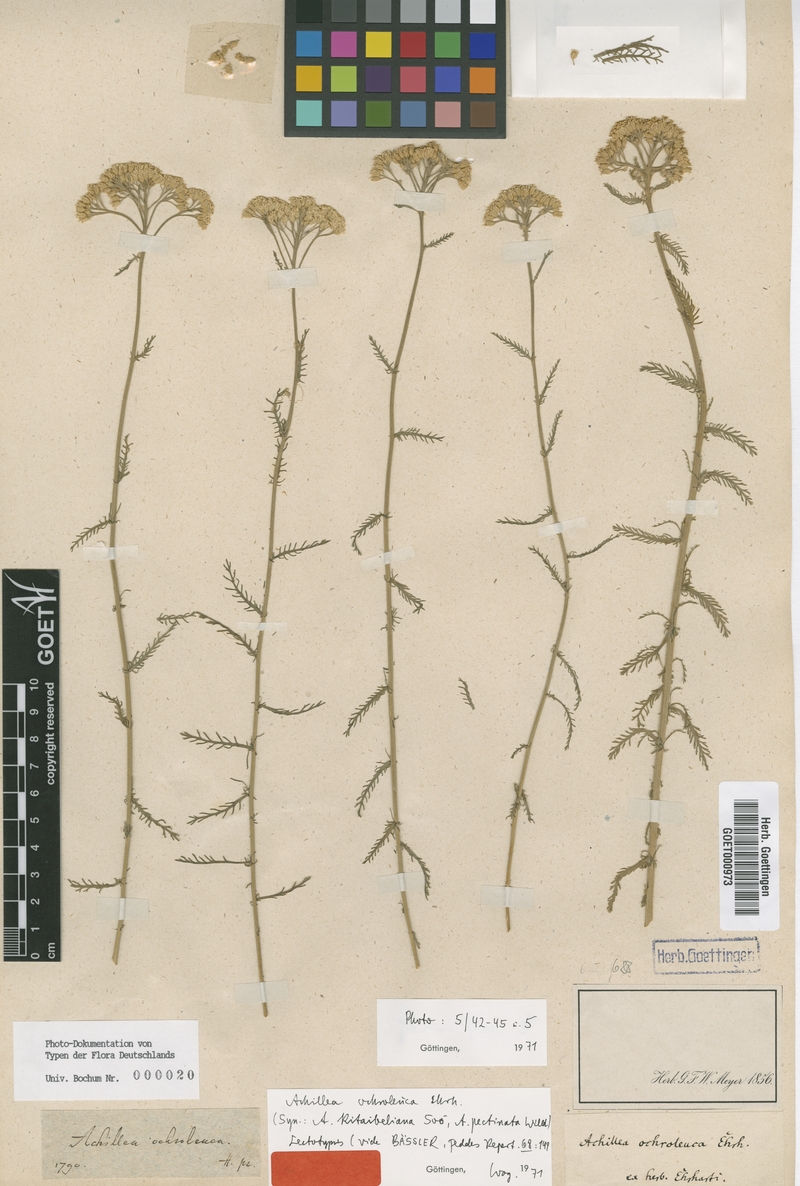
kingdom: Plantae
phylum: Tracheophyta
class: Magnoliopsida
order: Asterales
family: Asteraceae
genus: Achillea
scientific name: Achillea ochroleuca
